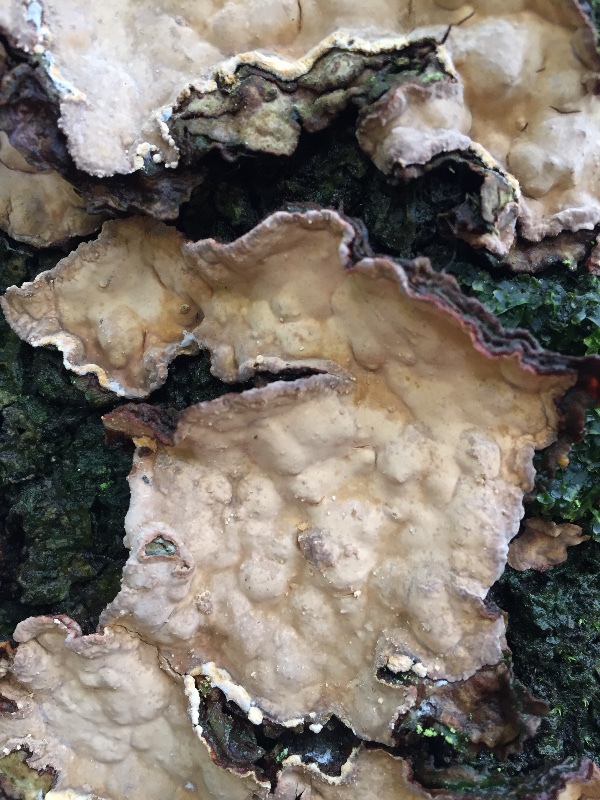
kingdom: Fungi
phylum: Basidiomycota
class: Agaricomycetes
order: Russulales
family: Stereaceae
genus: Stereum
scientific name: Stereum rugosum
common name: rynket lædersvamp
